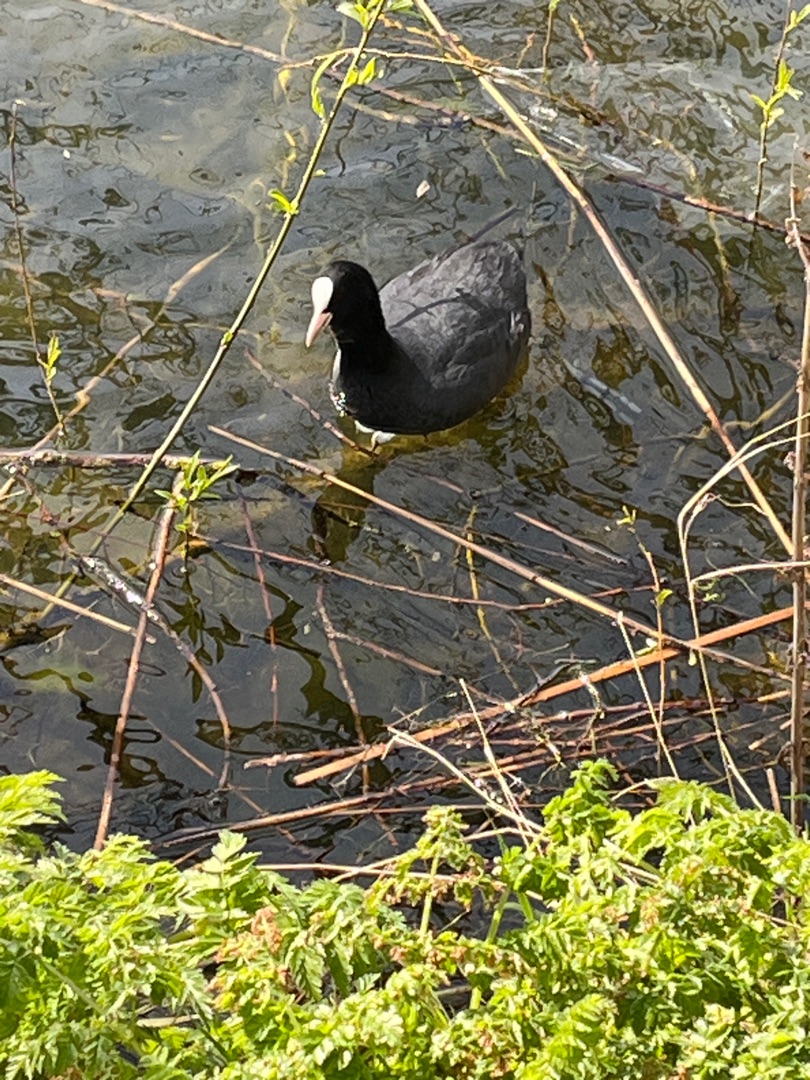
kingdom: Animalia
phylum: Chordata
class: Aves
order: Gruiformes
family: Rallidae
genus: Fulica
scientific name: Fulica atra
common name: Blishøne
